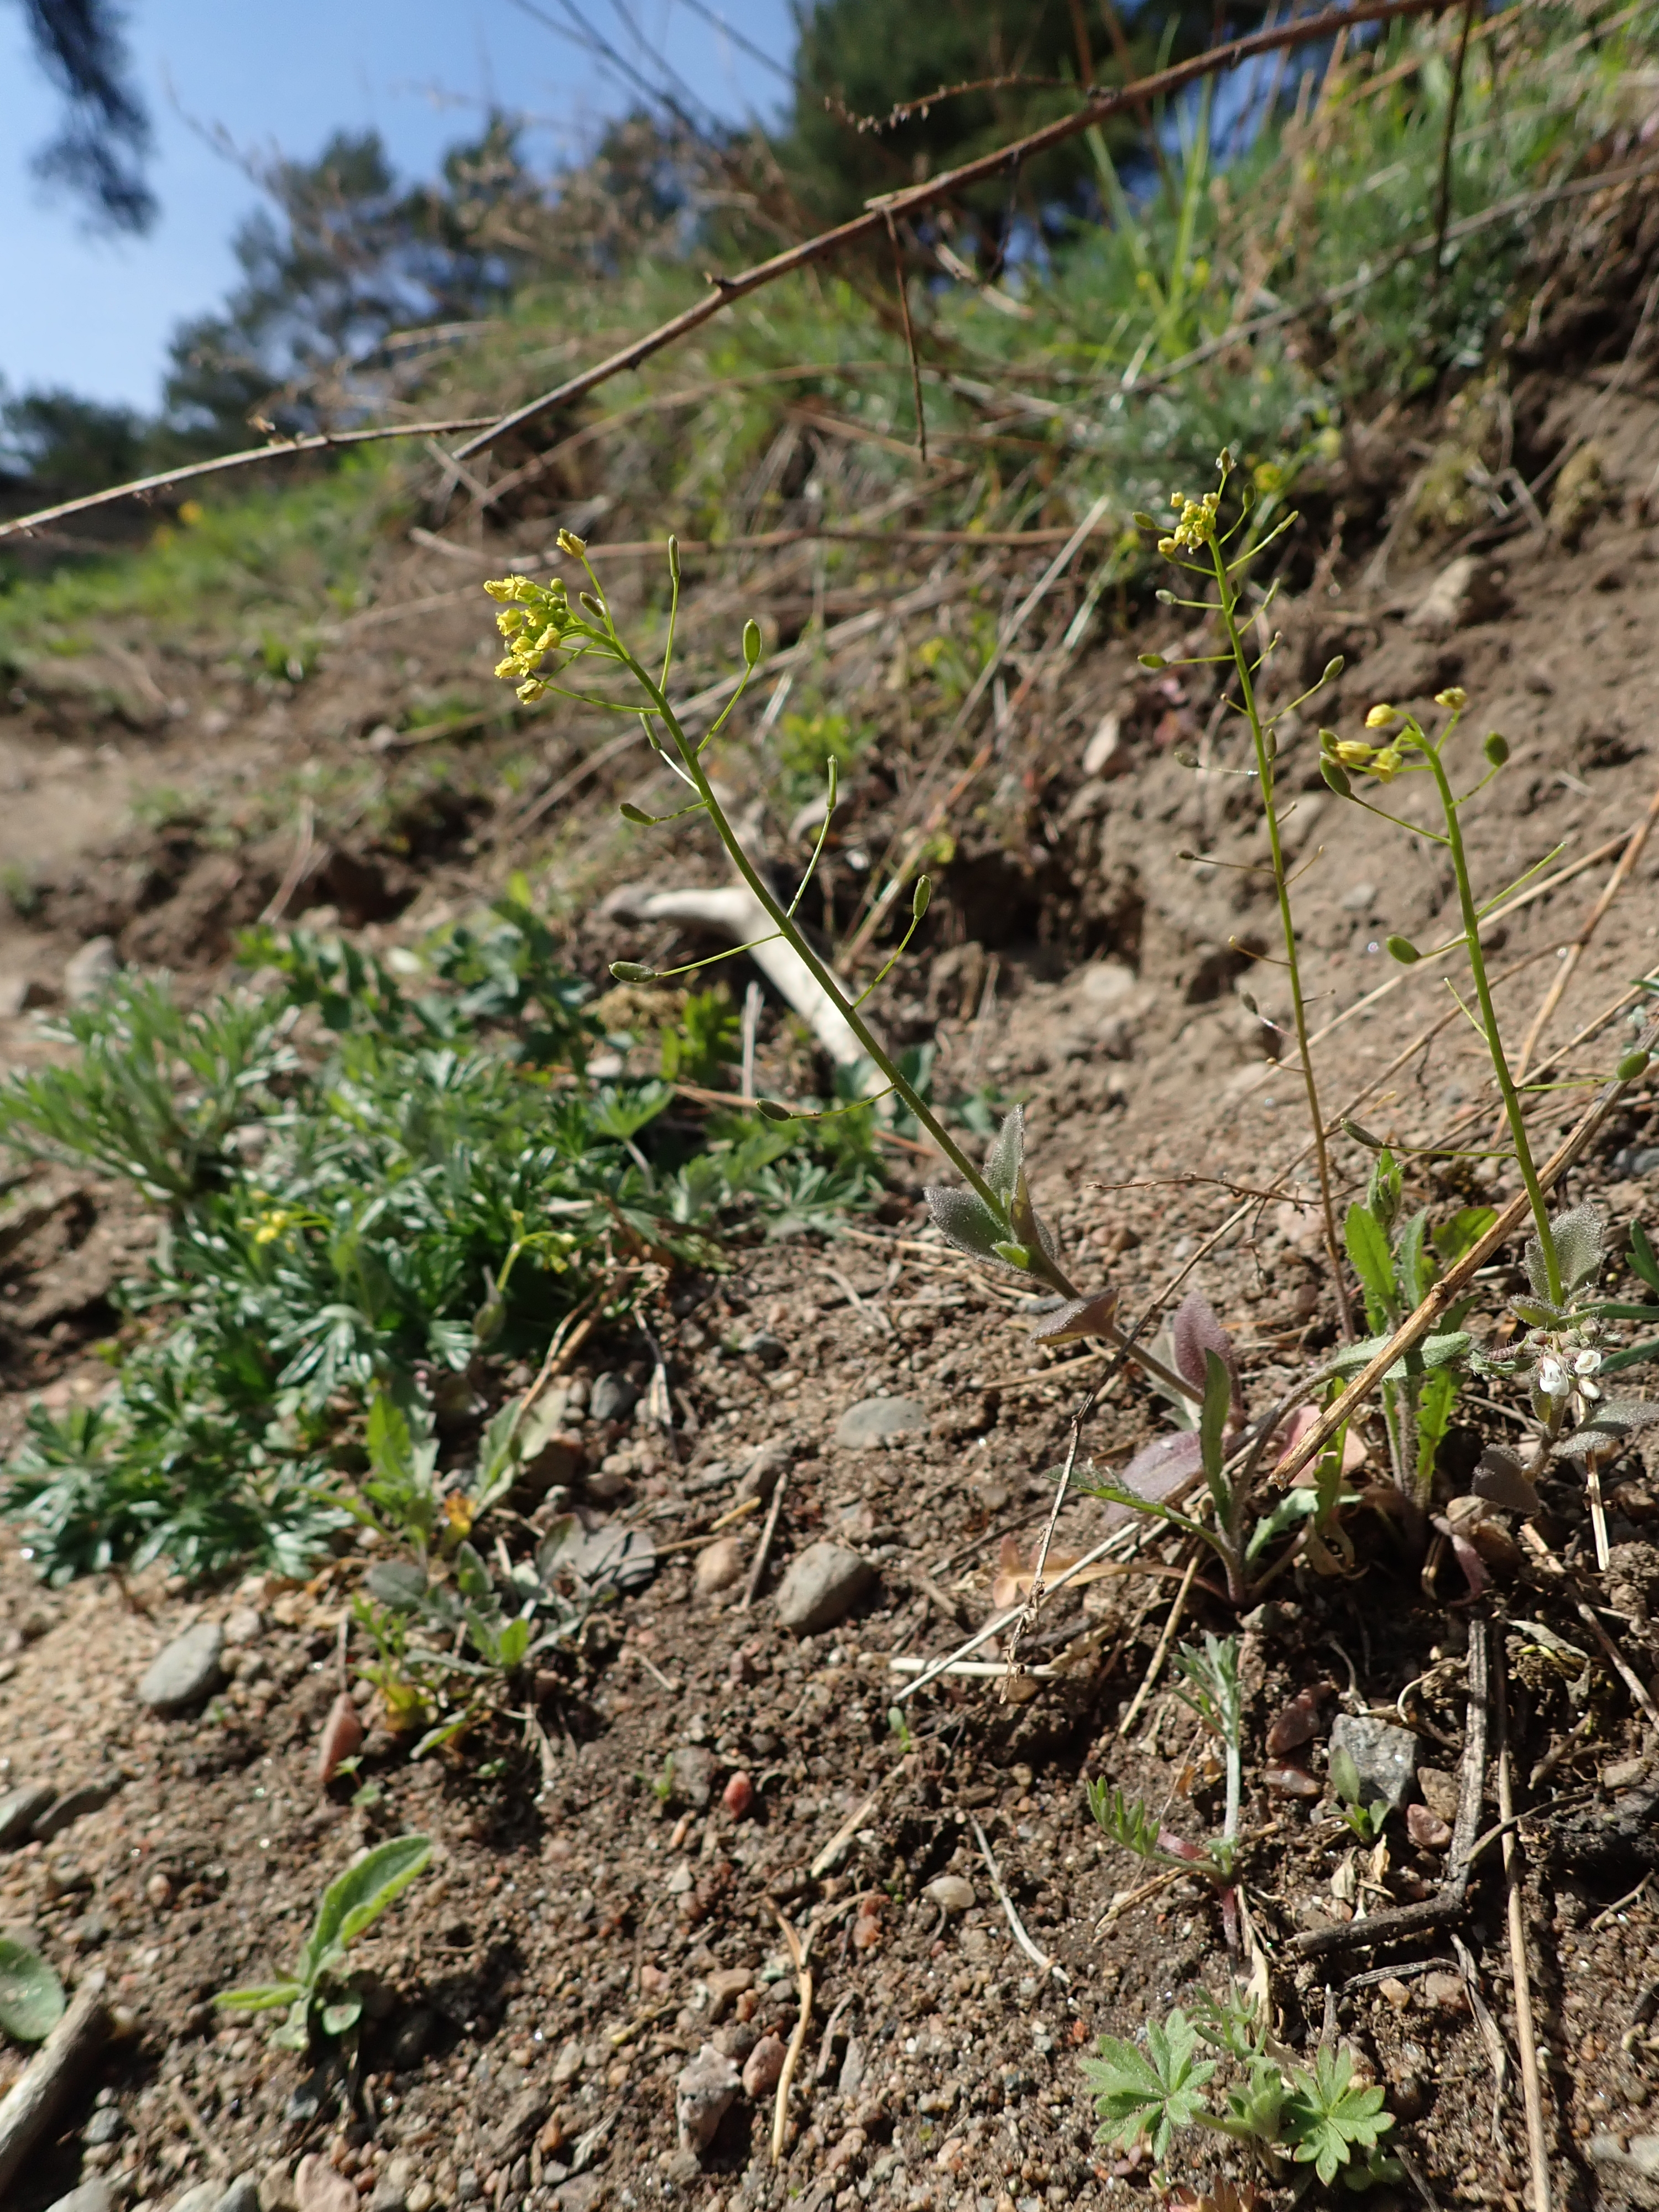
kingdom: Plantae
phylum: Tracheophyta
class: Magnoliopsida
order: Brassicales
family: Brassicaceae
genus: Draba
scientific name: Draba nemorosa
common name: Wood whitlow-grass
